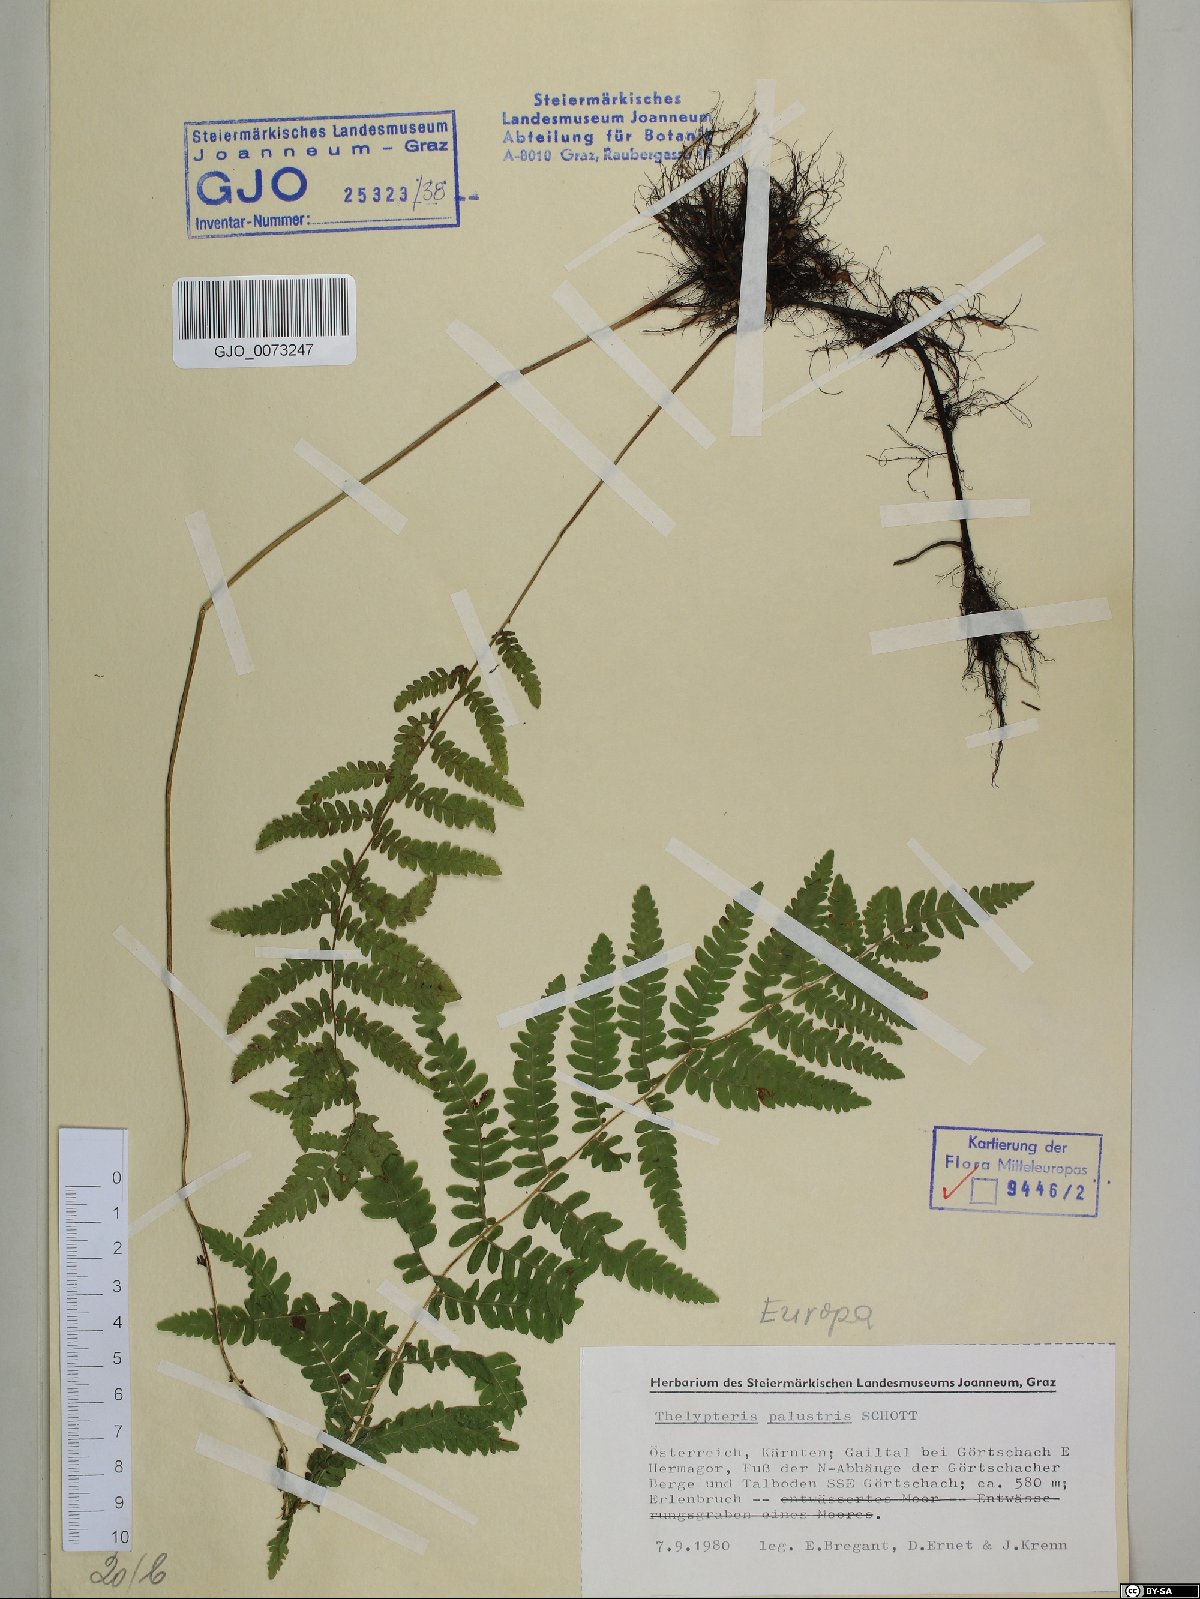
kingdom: Plantae
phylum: Tracheophyta
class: Polypodiopsida
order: Polypodiales
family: Thelypteridaceae
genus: Thelypteris
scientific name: Thelypteris palustris
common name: Marsh fern
